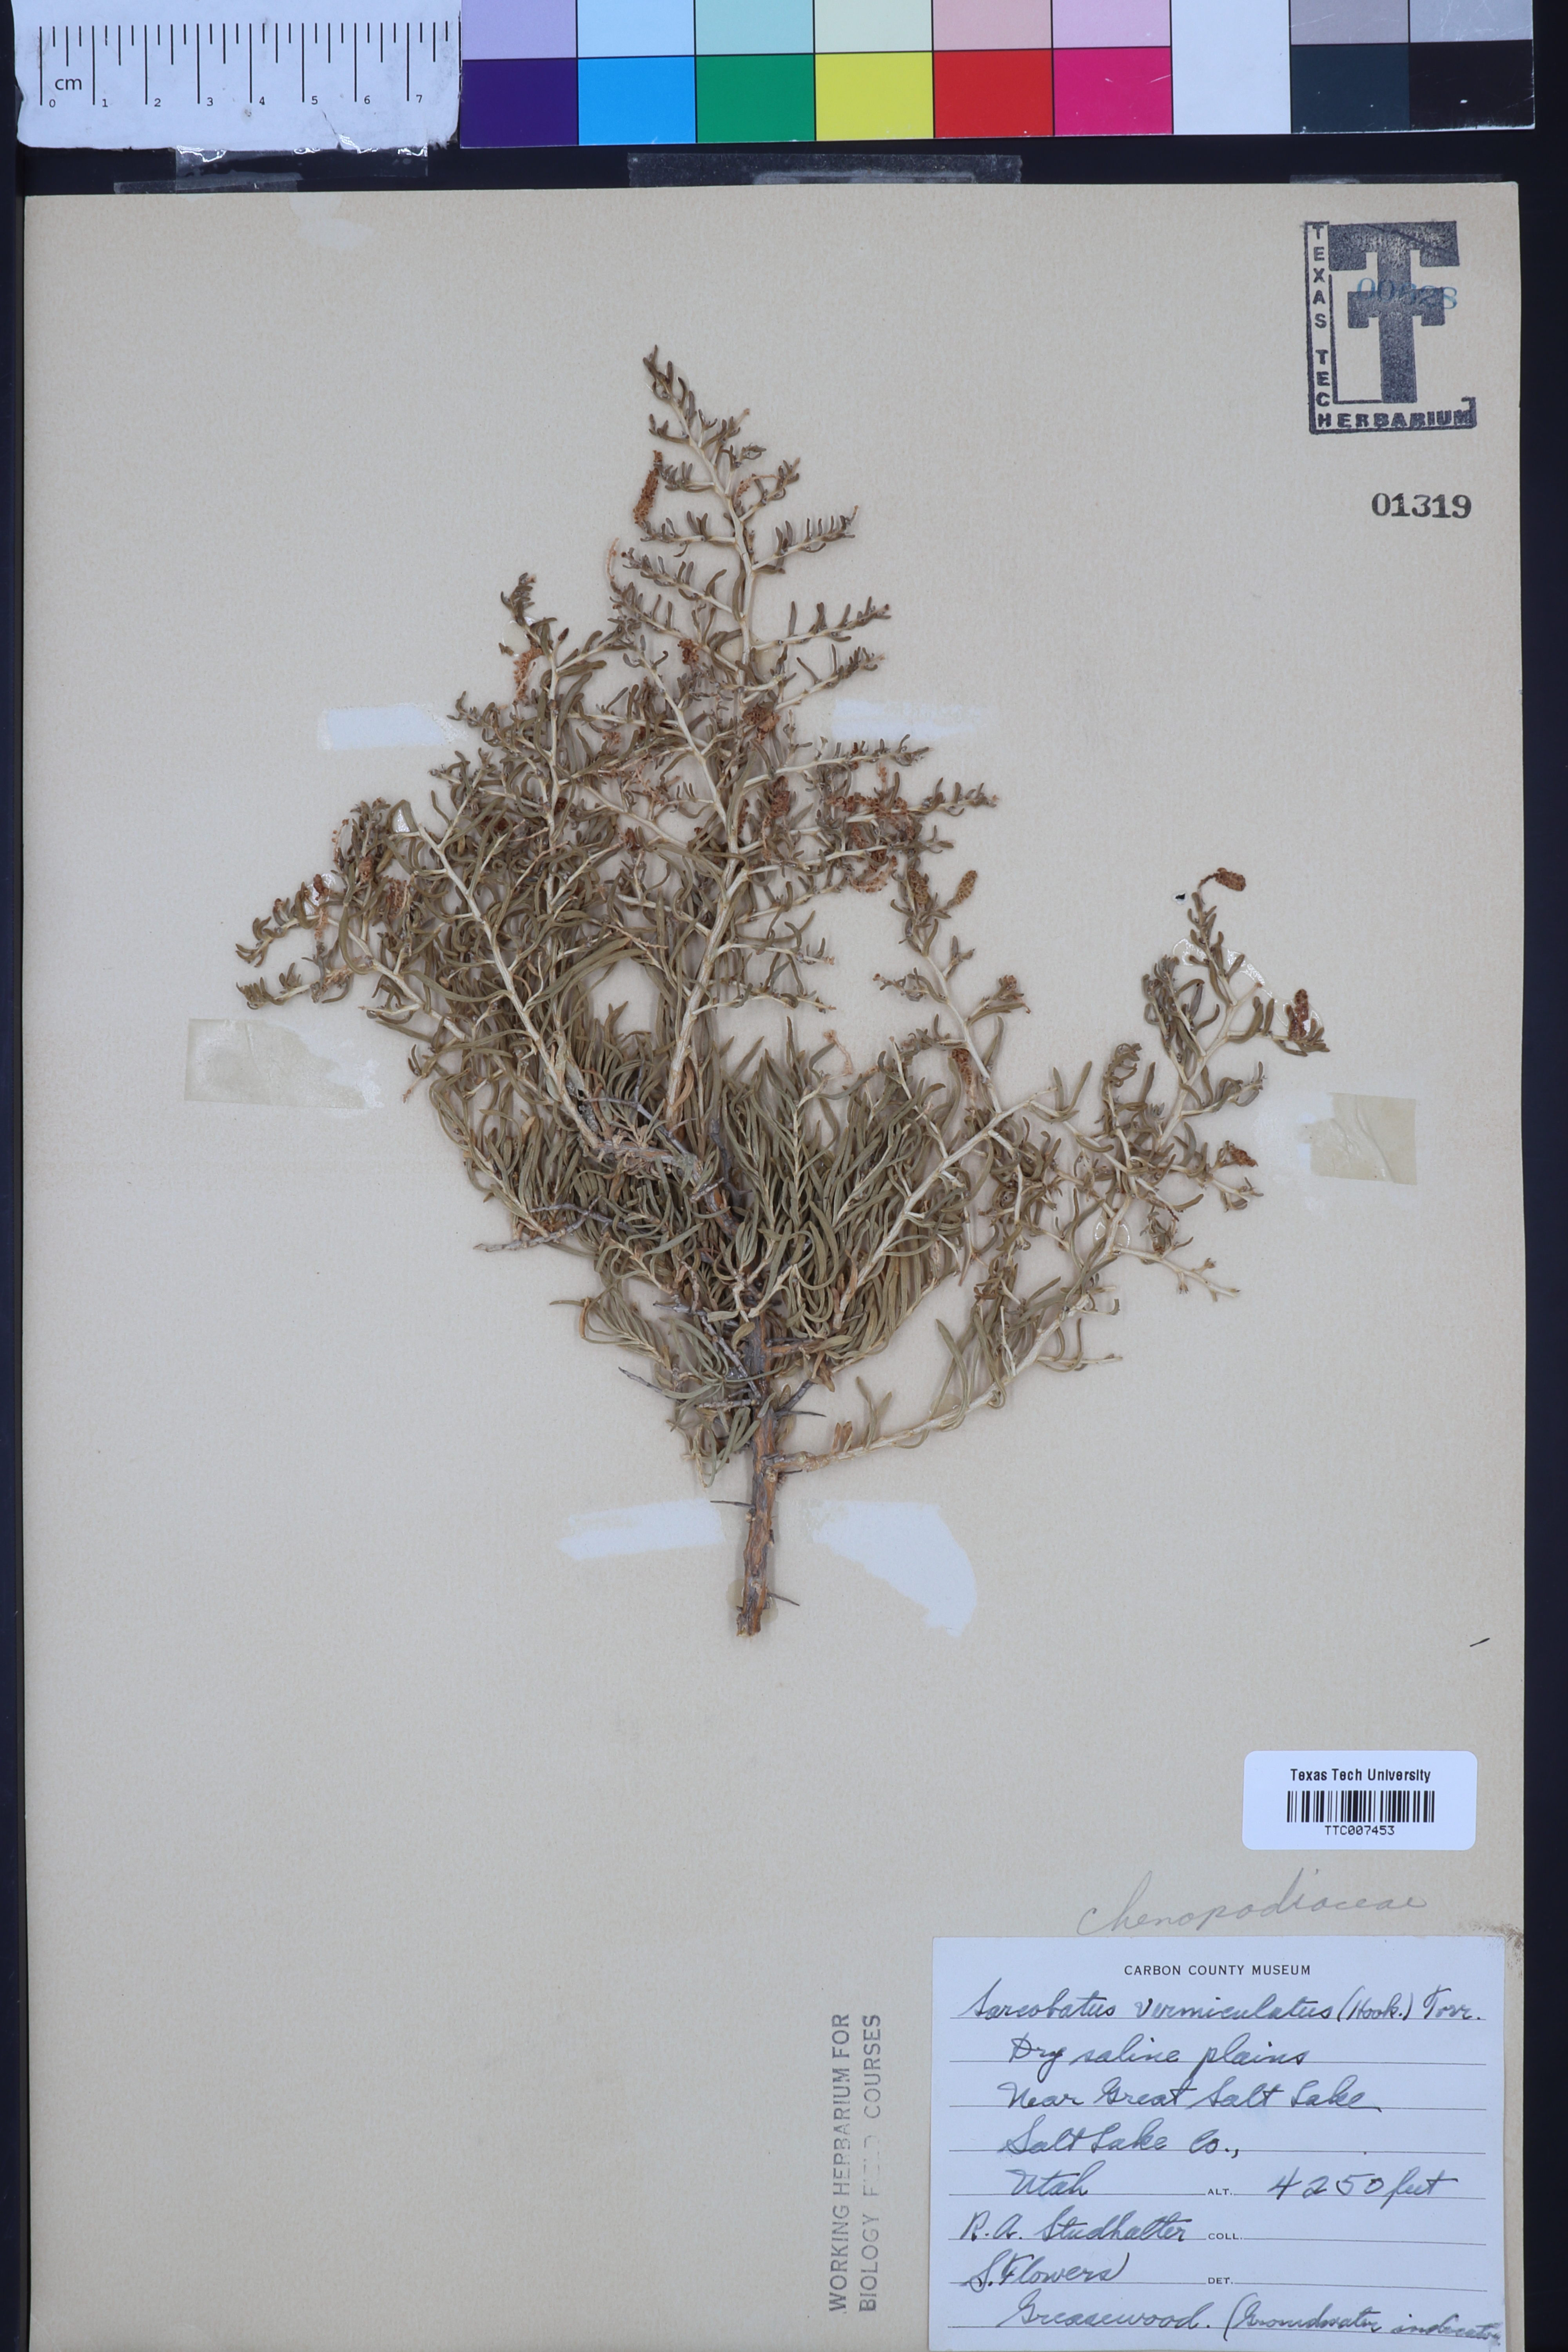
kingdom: Plantae
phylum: Tracheophyta
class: Magnoliopsida
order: Caryophyllales
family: Sarcobataceae
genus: Sarcobatus
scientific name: Sarcobatus vermiculatus
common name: Greasewood
